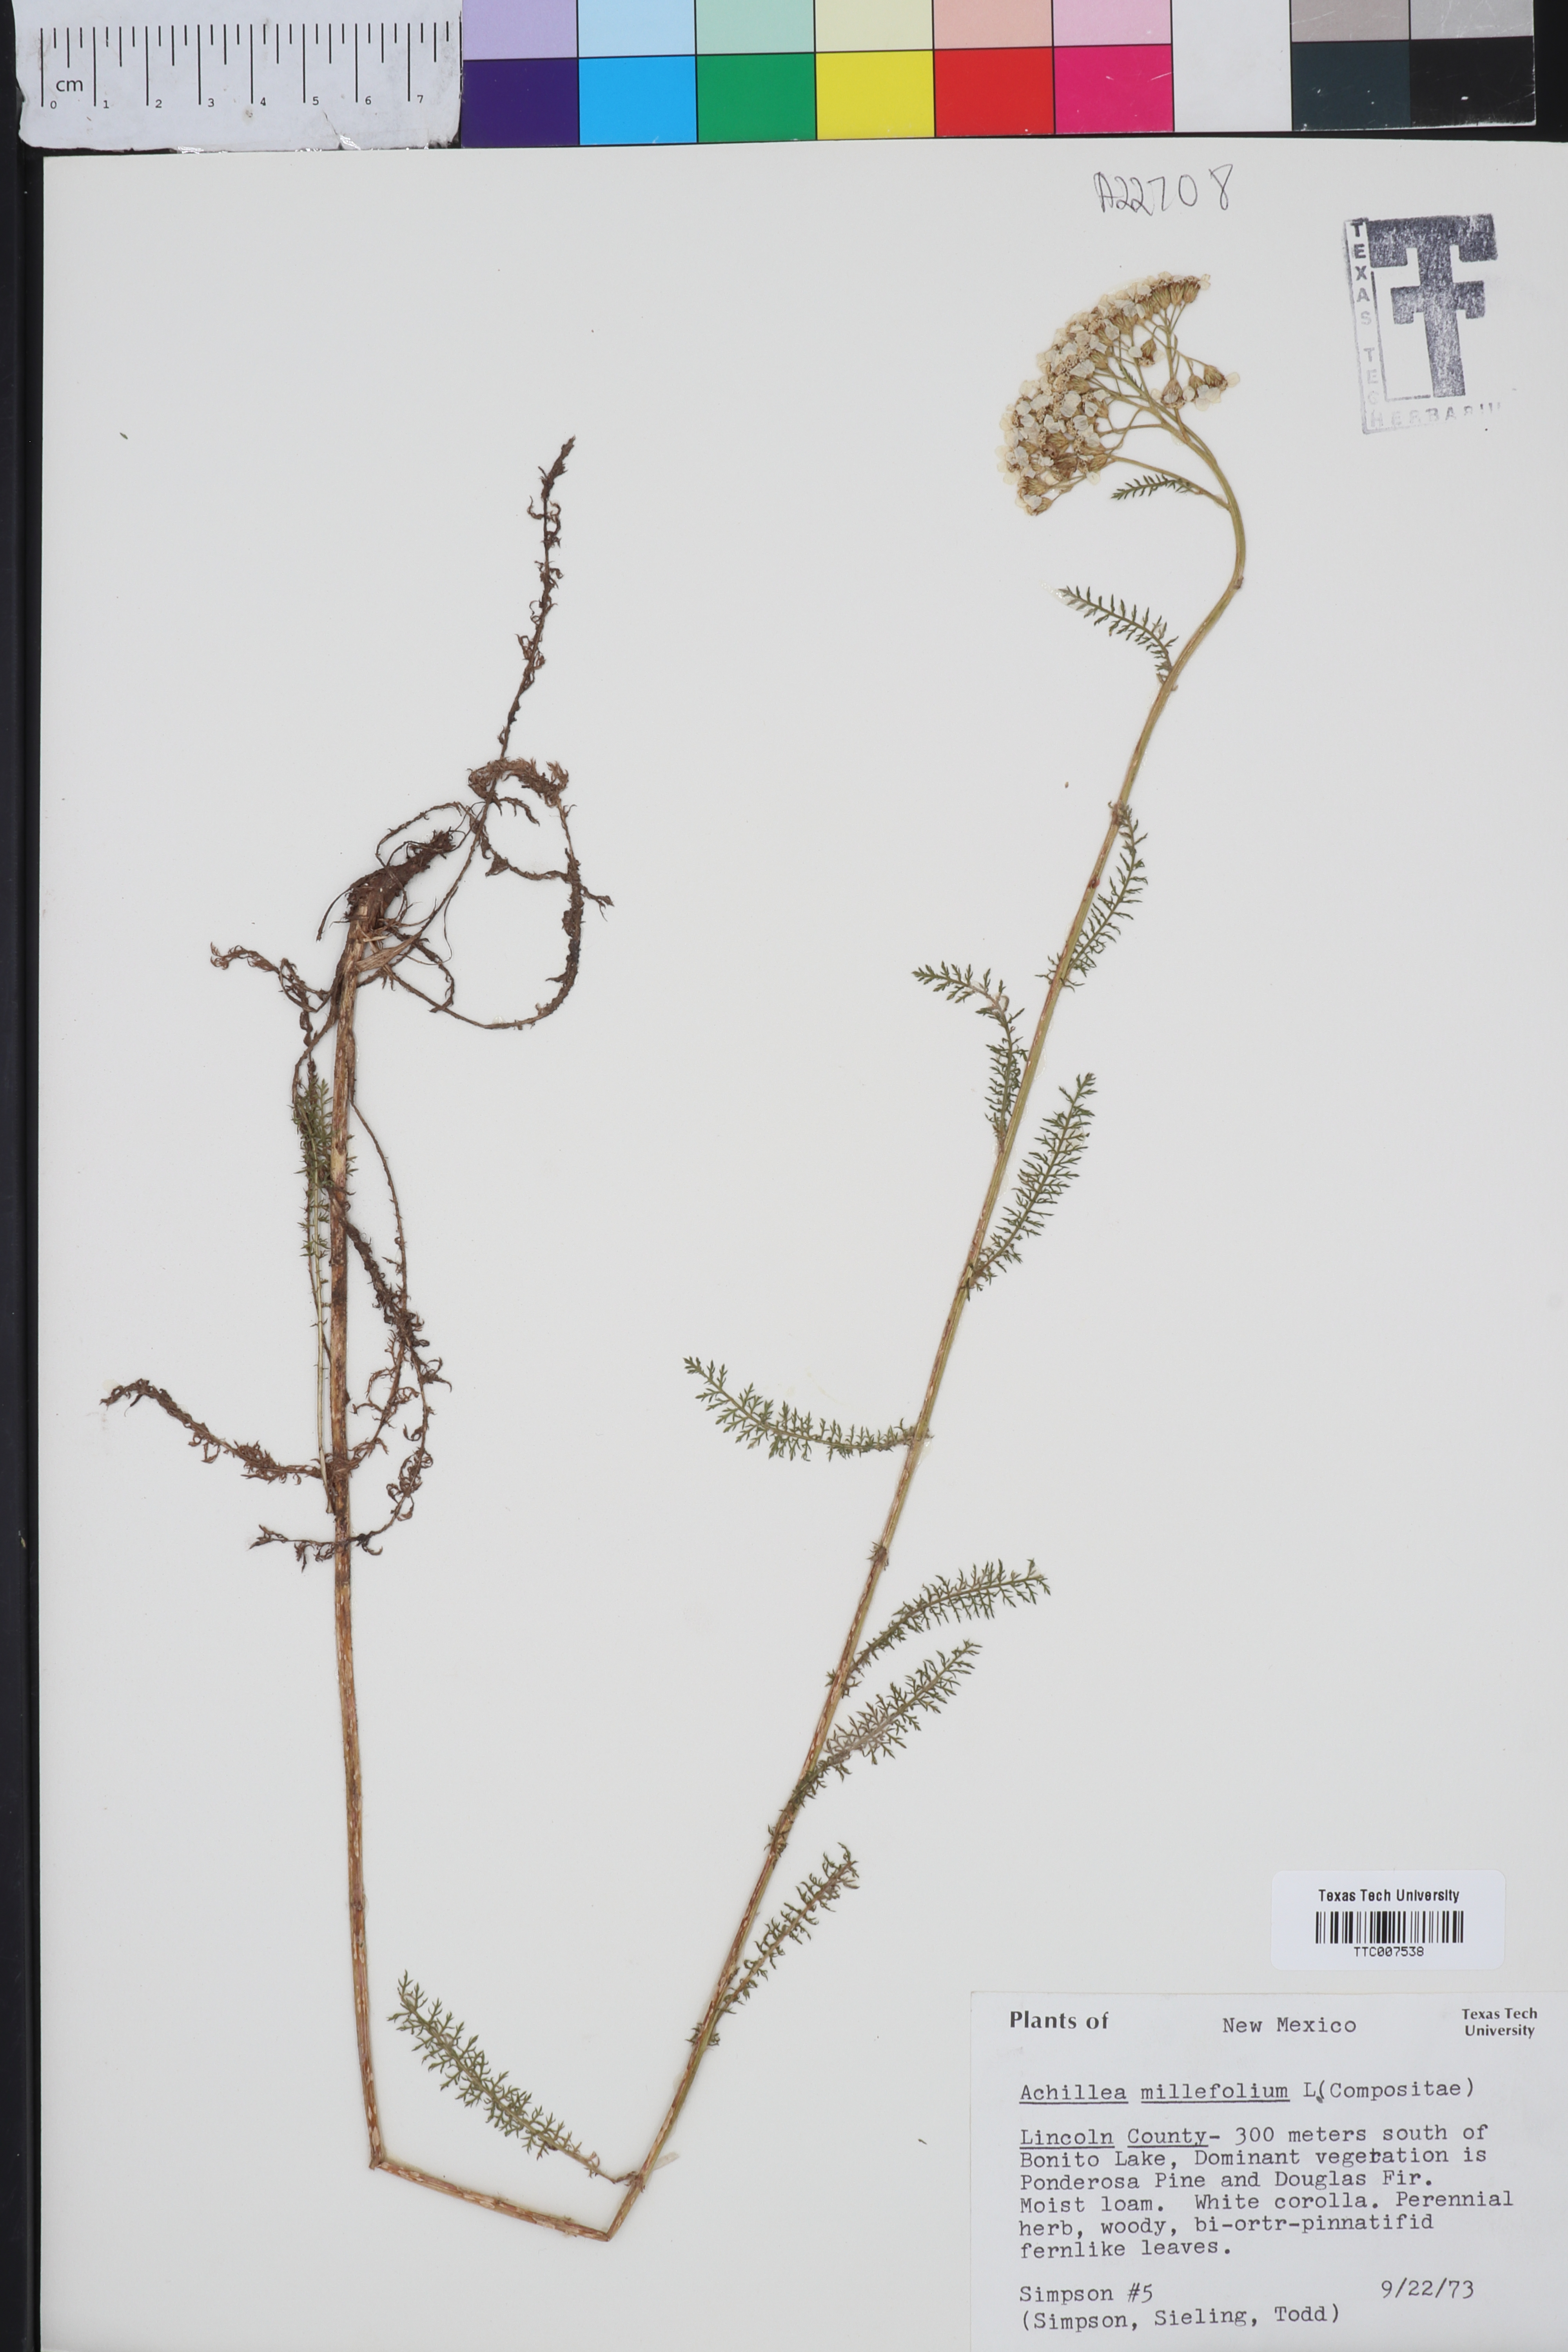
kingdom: Plantae
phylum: Tracheophyta
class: Magnoliopsida
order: Asterales
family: Asteraceae
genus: Achillea
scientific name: Achillea millefolium
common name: Yarrow
